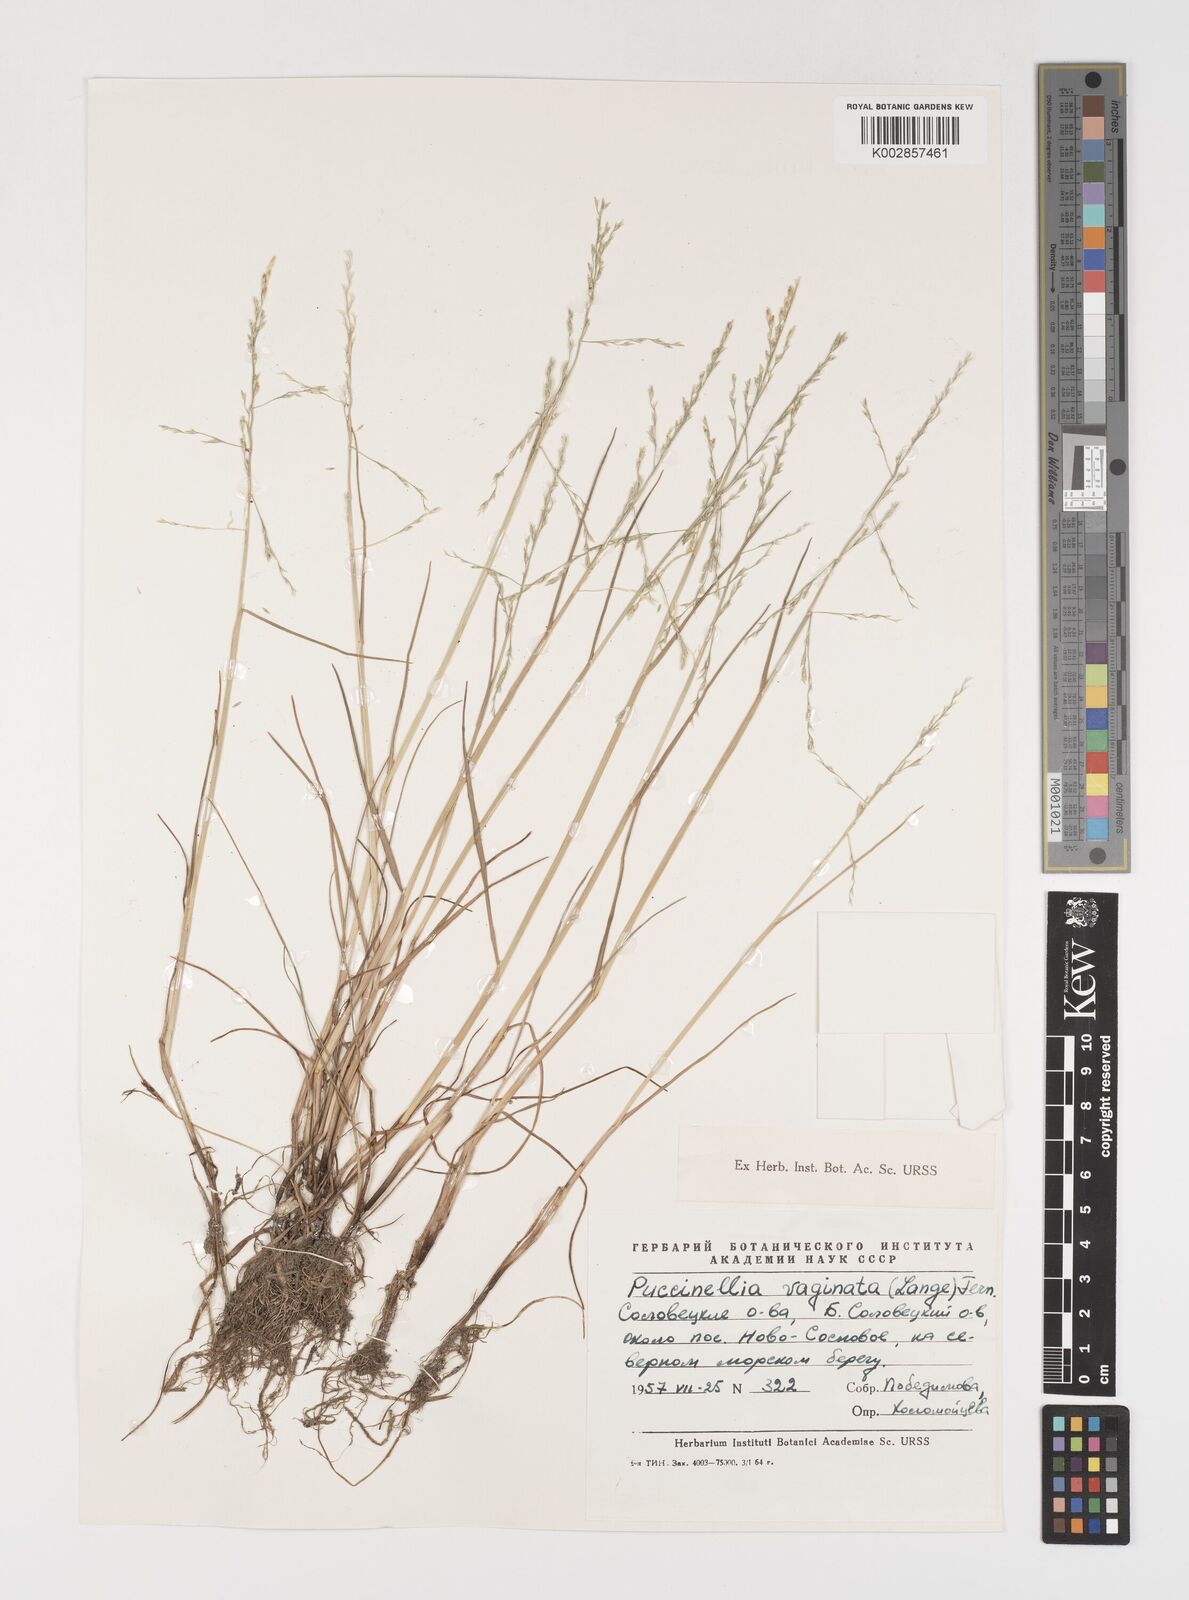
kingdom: Plantae
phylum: Tracheophyta
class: Liliopsida
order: Poales
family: Poaceae
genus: Puccinellia
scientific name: Puccinellia
